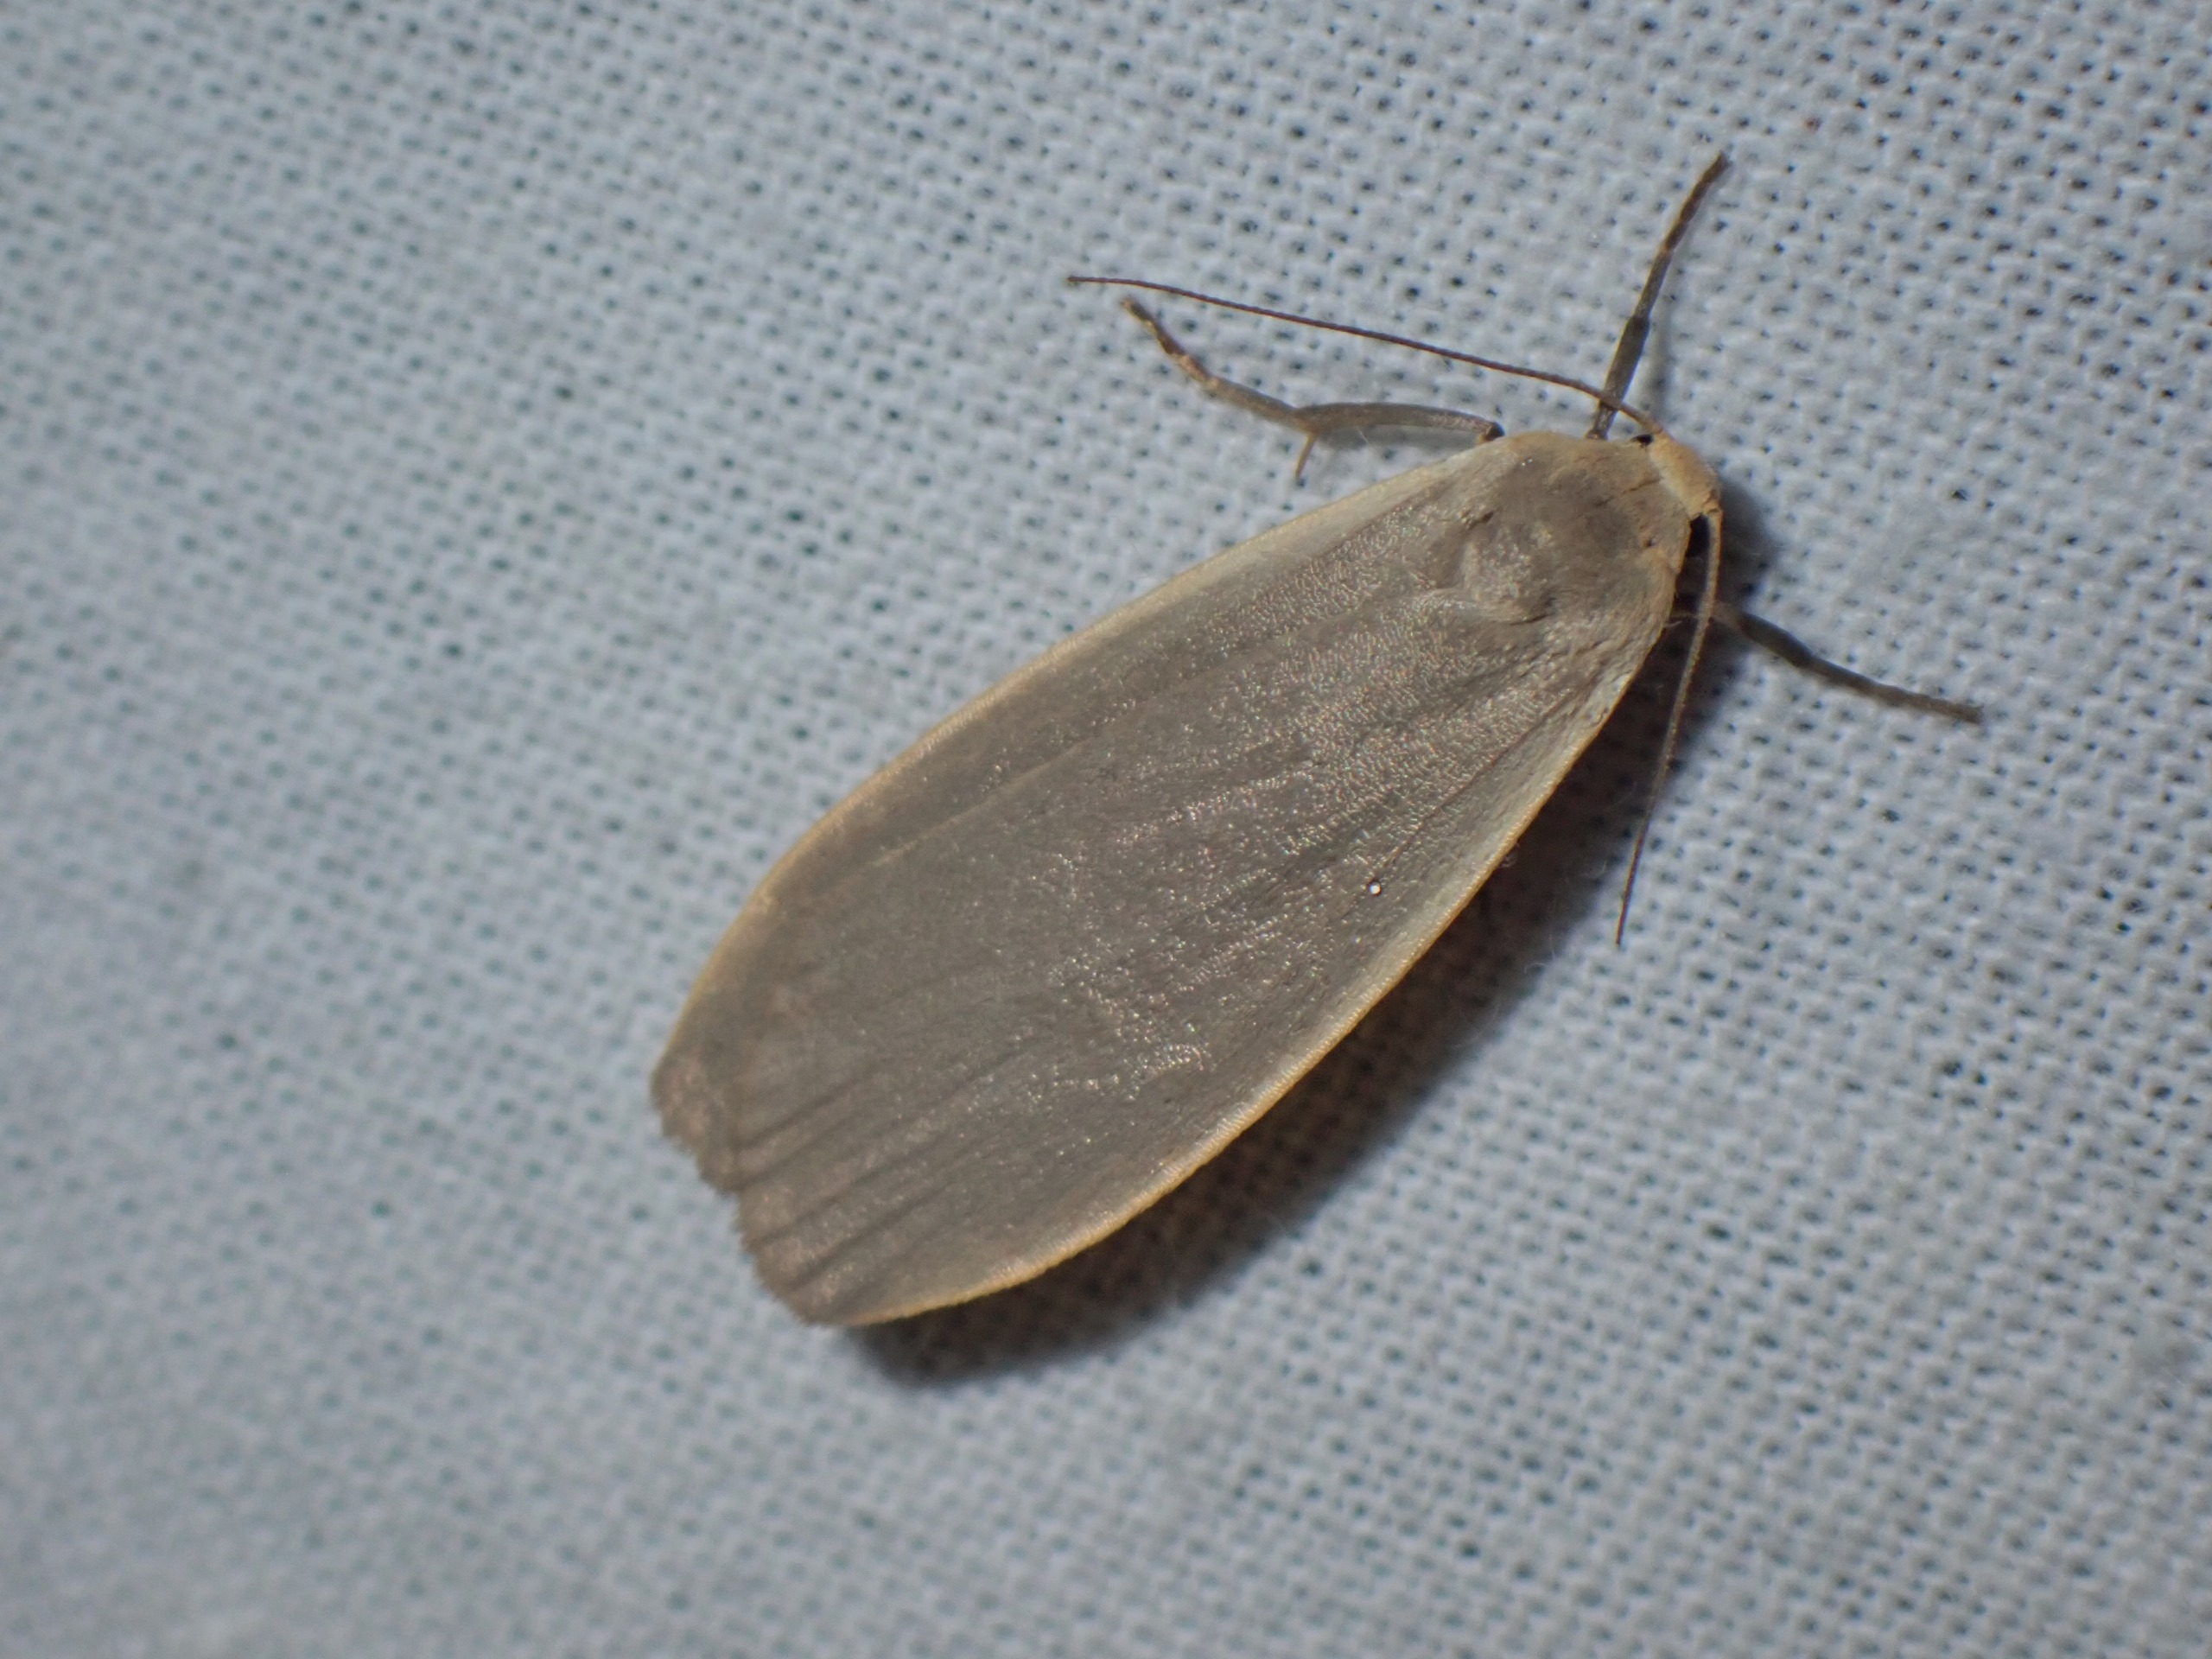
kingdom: Animalia
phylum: Arthropoda
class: Insecta
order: Lepidoptera
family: Erebidae
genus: Collita
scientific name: Collita griseola
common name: Askegraa lavspinder
